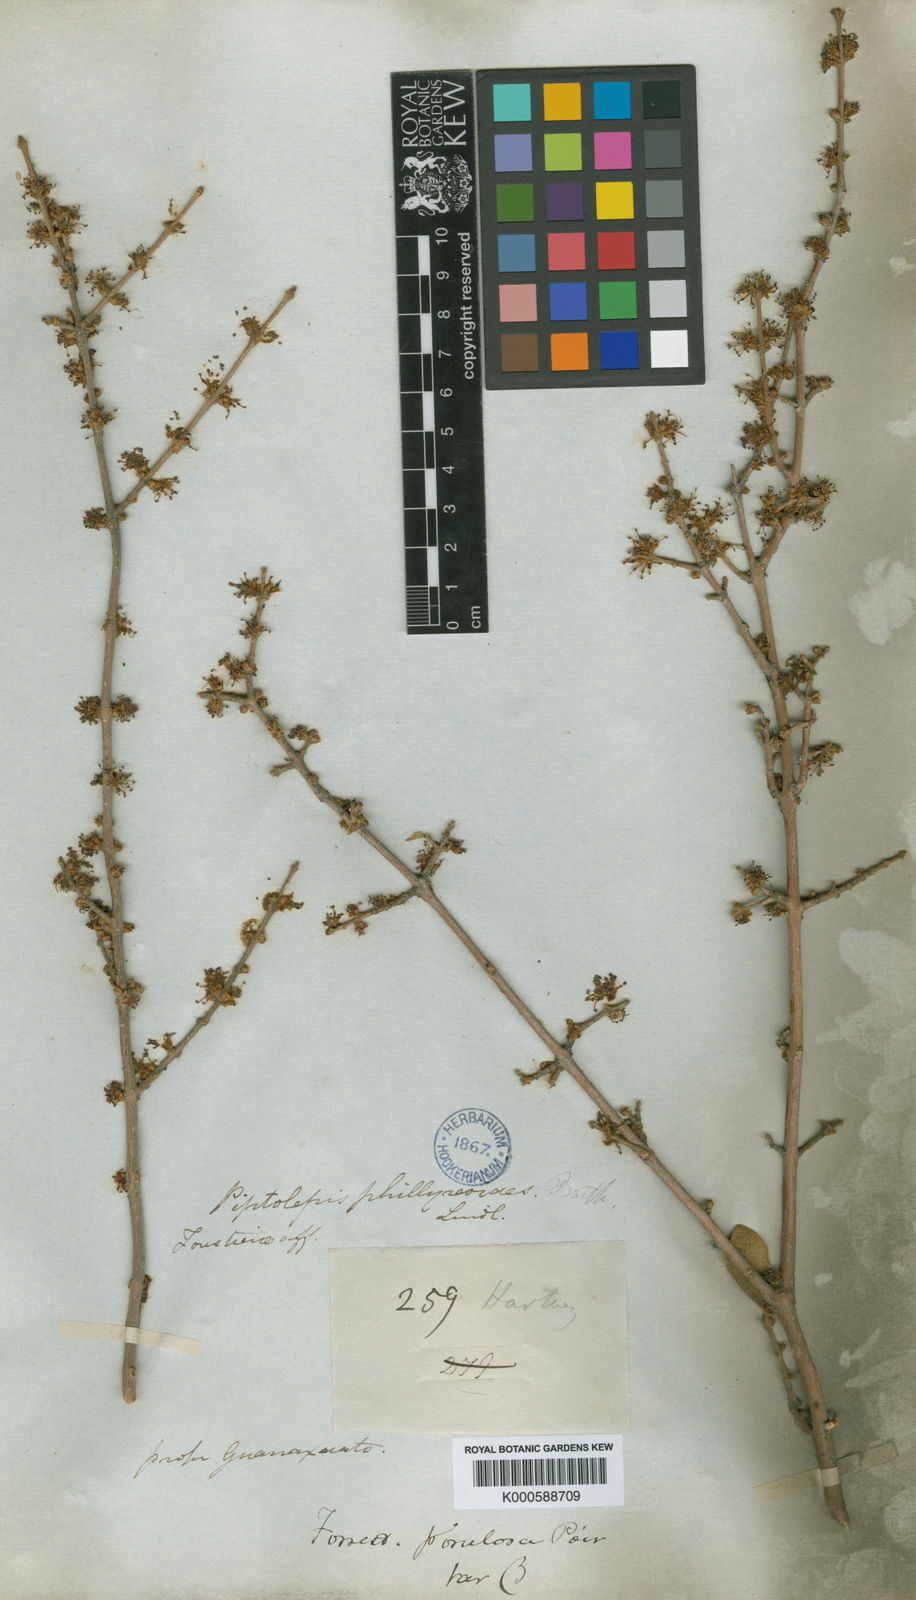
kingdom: Plantae
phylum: Tracheophyta
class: Magnoliopsida
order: Lamiales
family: Oleaceae
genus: Forestiera
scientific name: Forestiera phillyreoides
